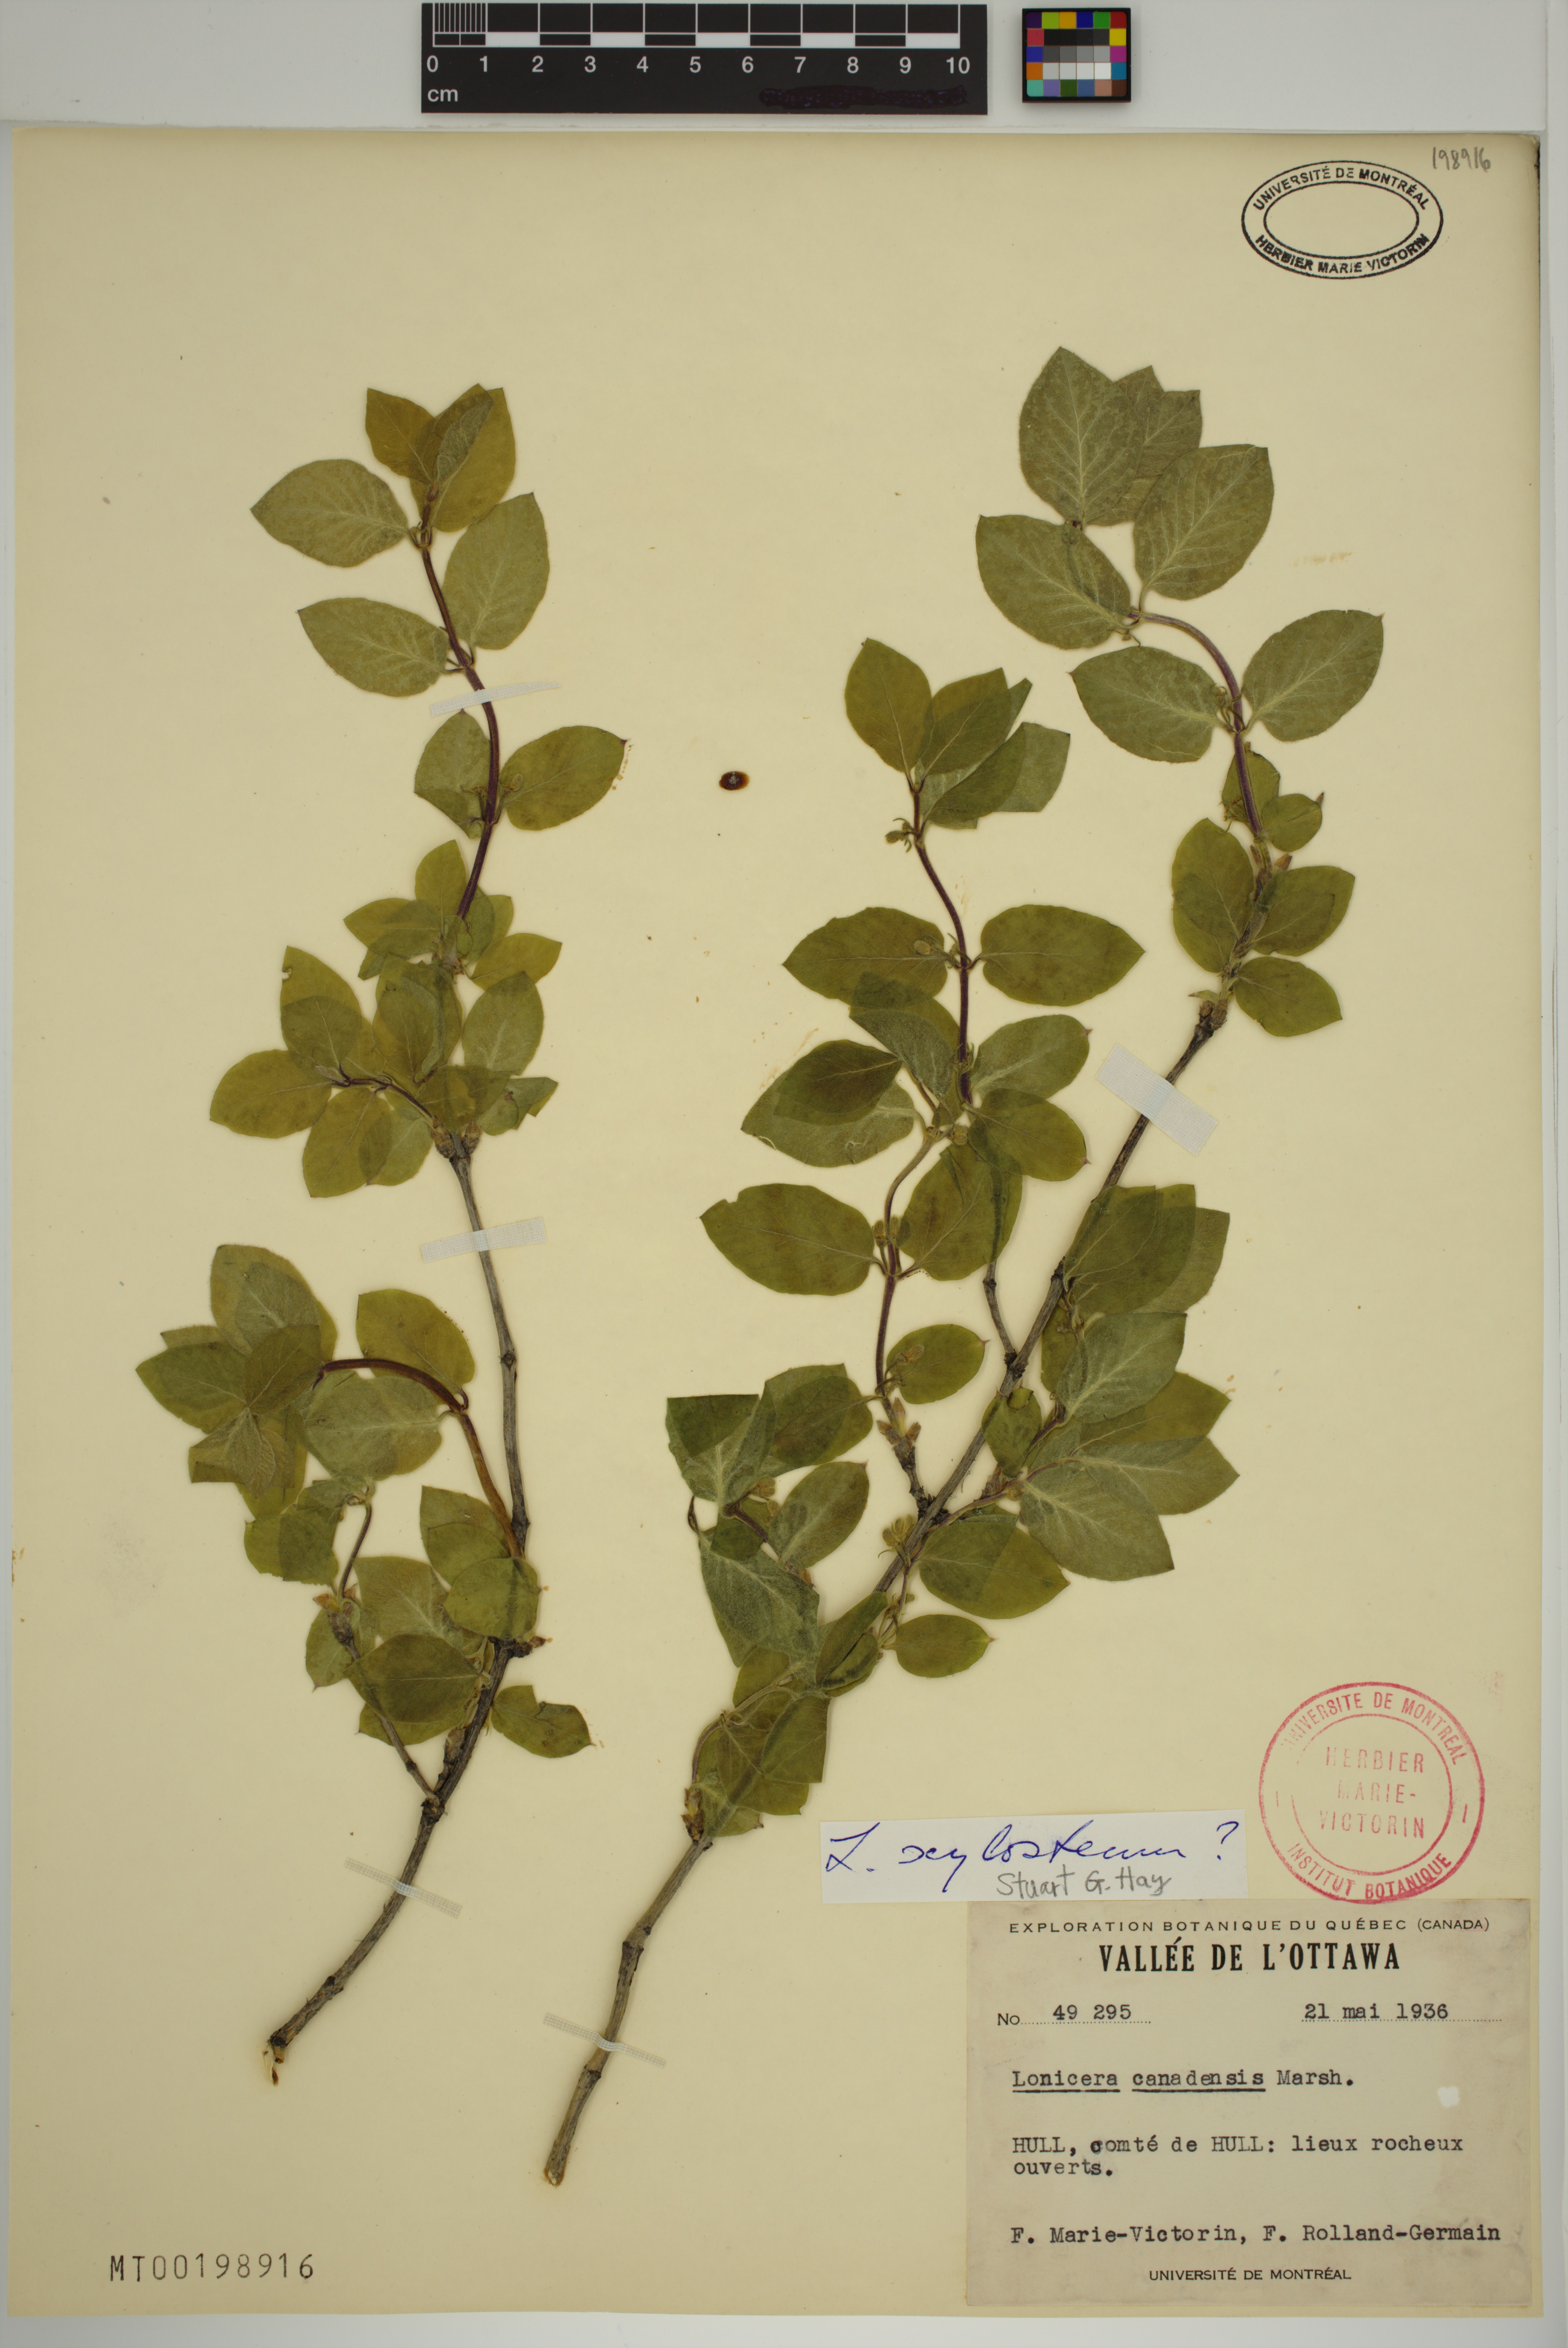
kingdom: Plantae
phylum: Tracheophyta
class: Magnoliopsida
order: Dipsacales
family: Caprifoliaceae
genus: Lonicera
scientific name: Lonicera xylosteum
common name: Fly honeysuckle
